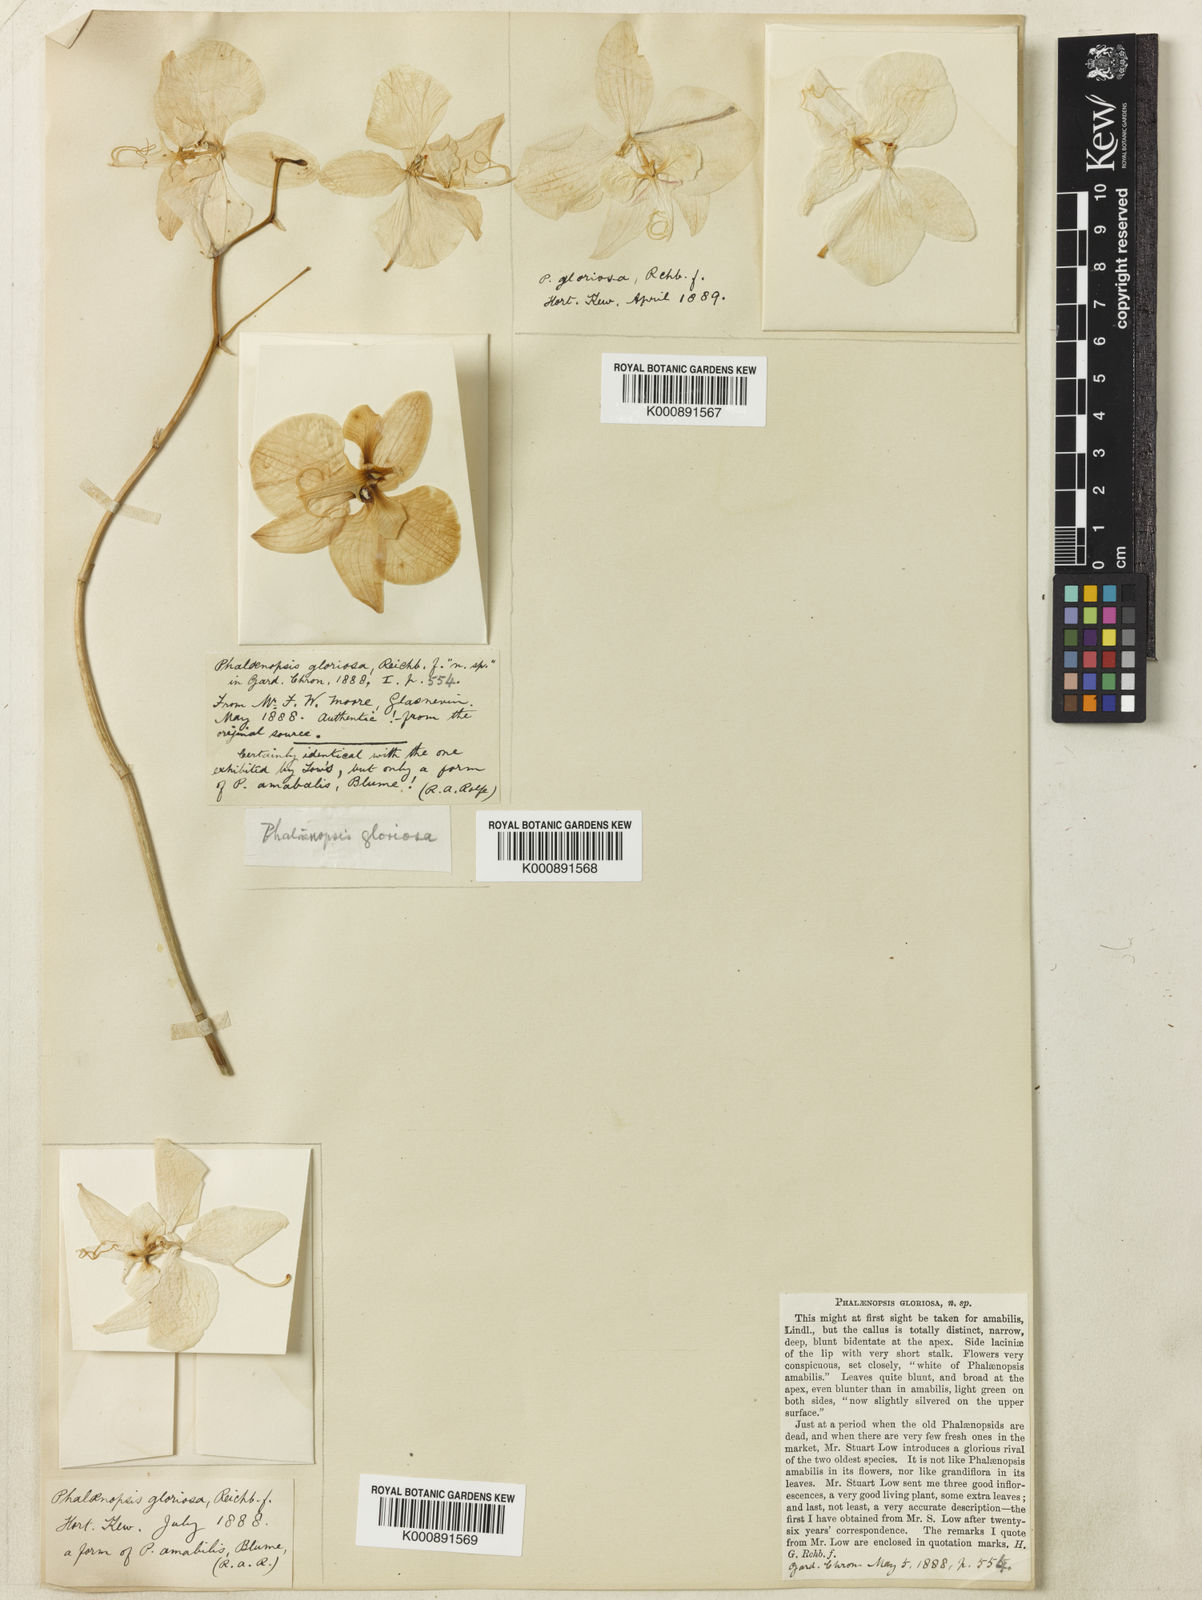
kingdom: Plantae
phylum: Tracheophyta
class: Liliopsida
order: Asparagales
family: Orchidaceae
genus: Phalaenopsis
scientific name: Phalaenopsis amabilis
